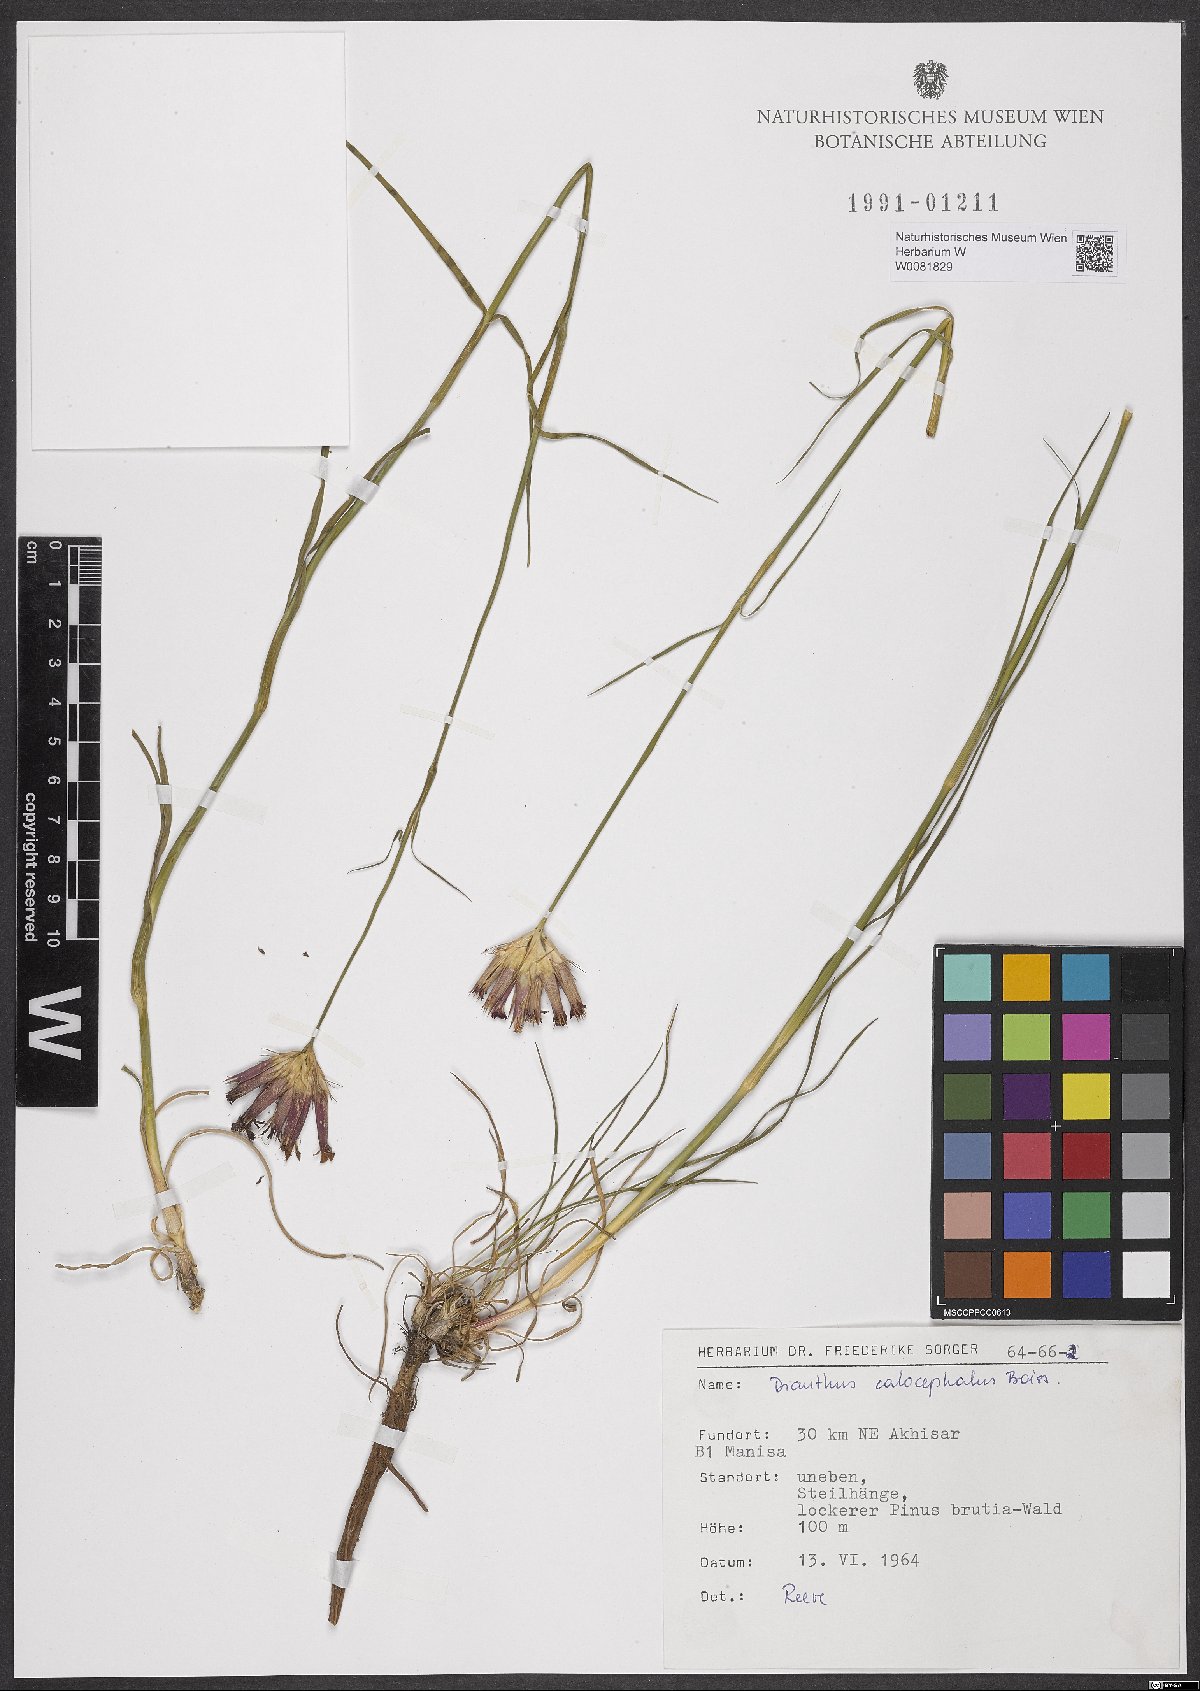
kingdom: Plantae
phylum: Tracheophyta
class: Magnoliopsida
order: Caryophyllales
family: Caryophyllaceae
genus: Dianthus
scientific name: Dianthus cruentus
